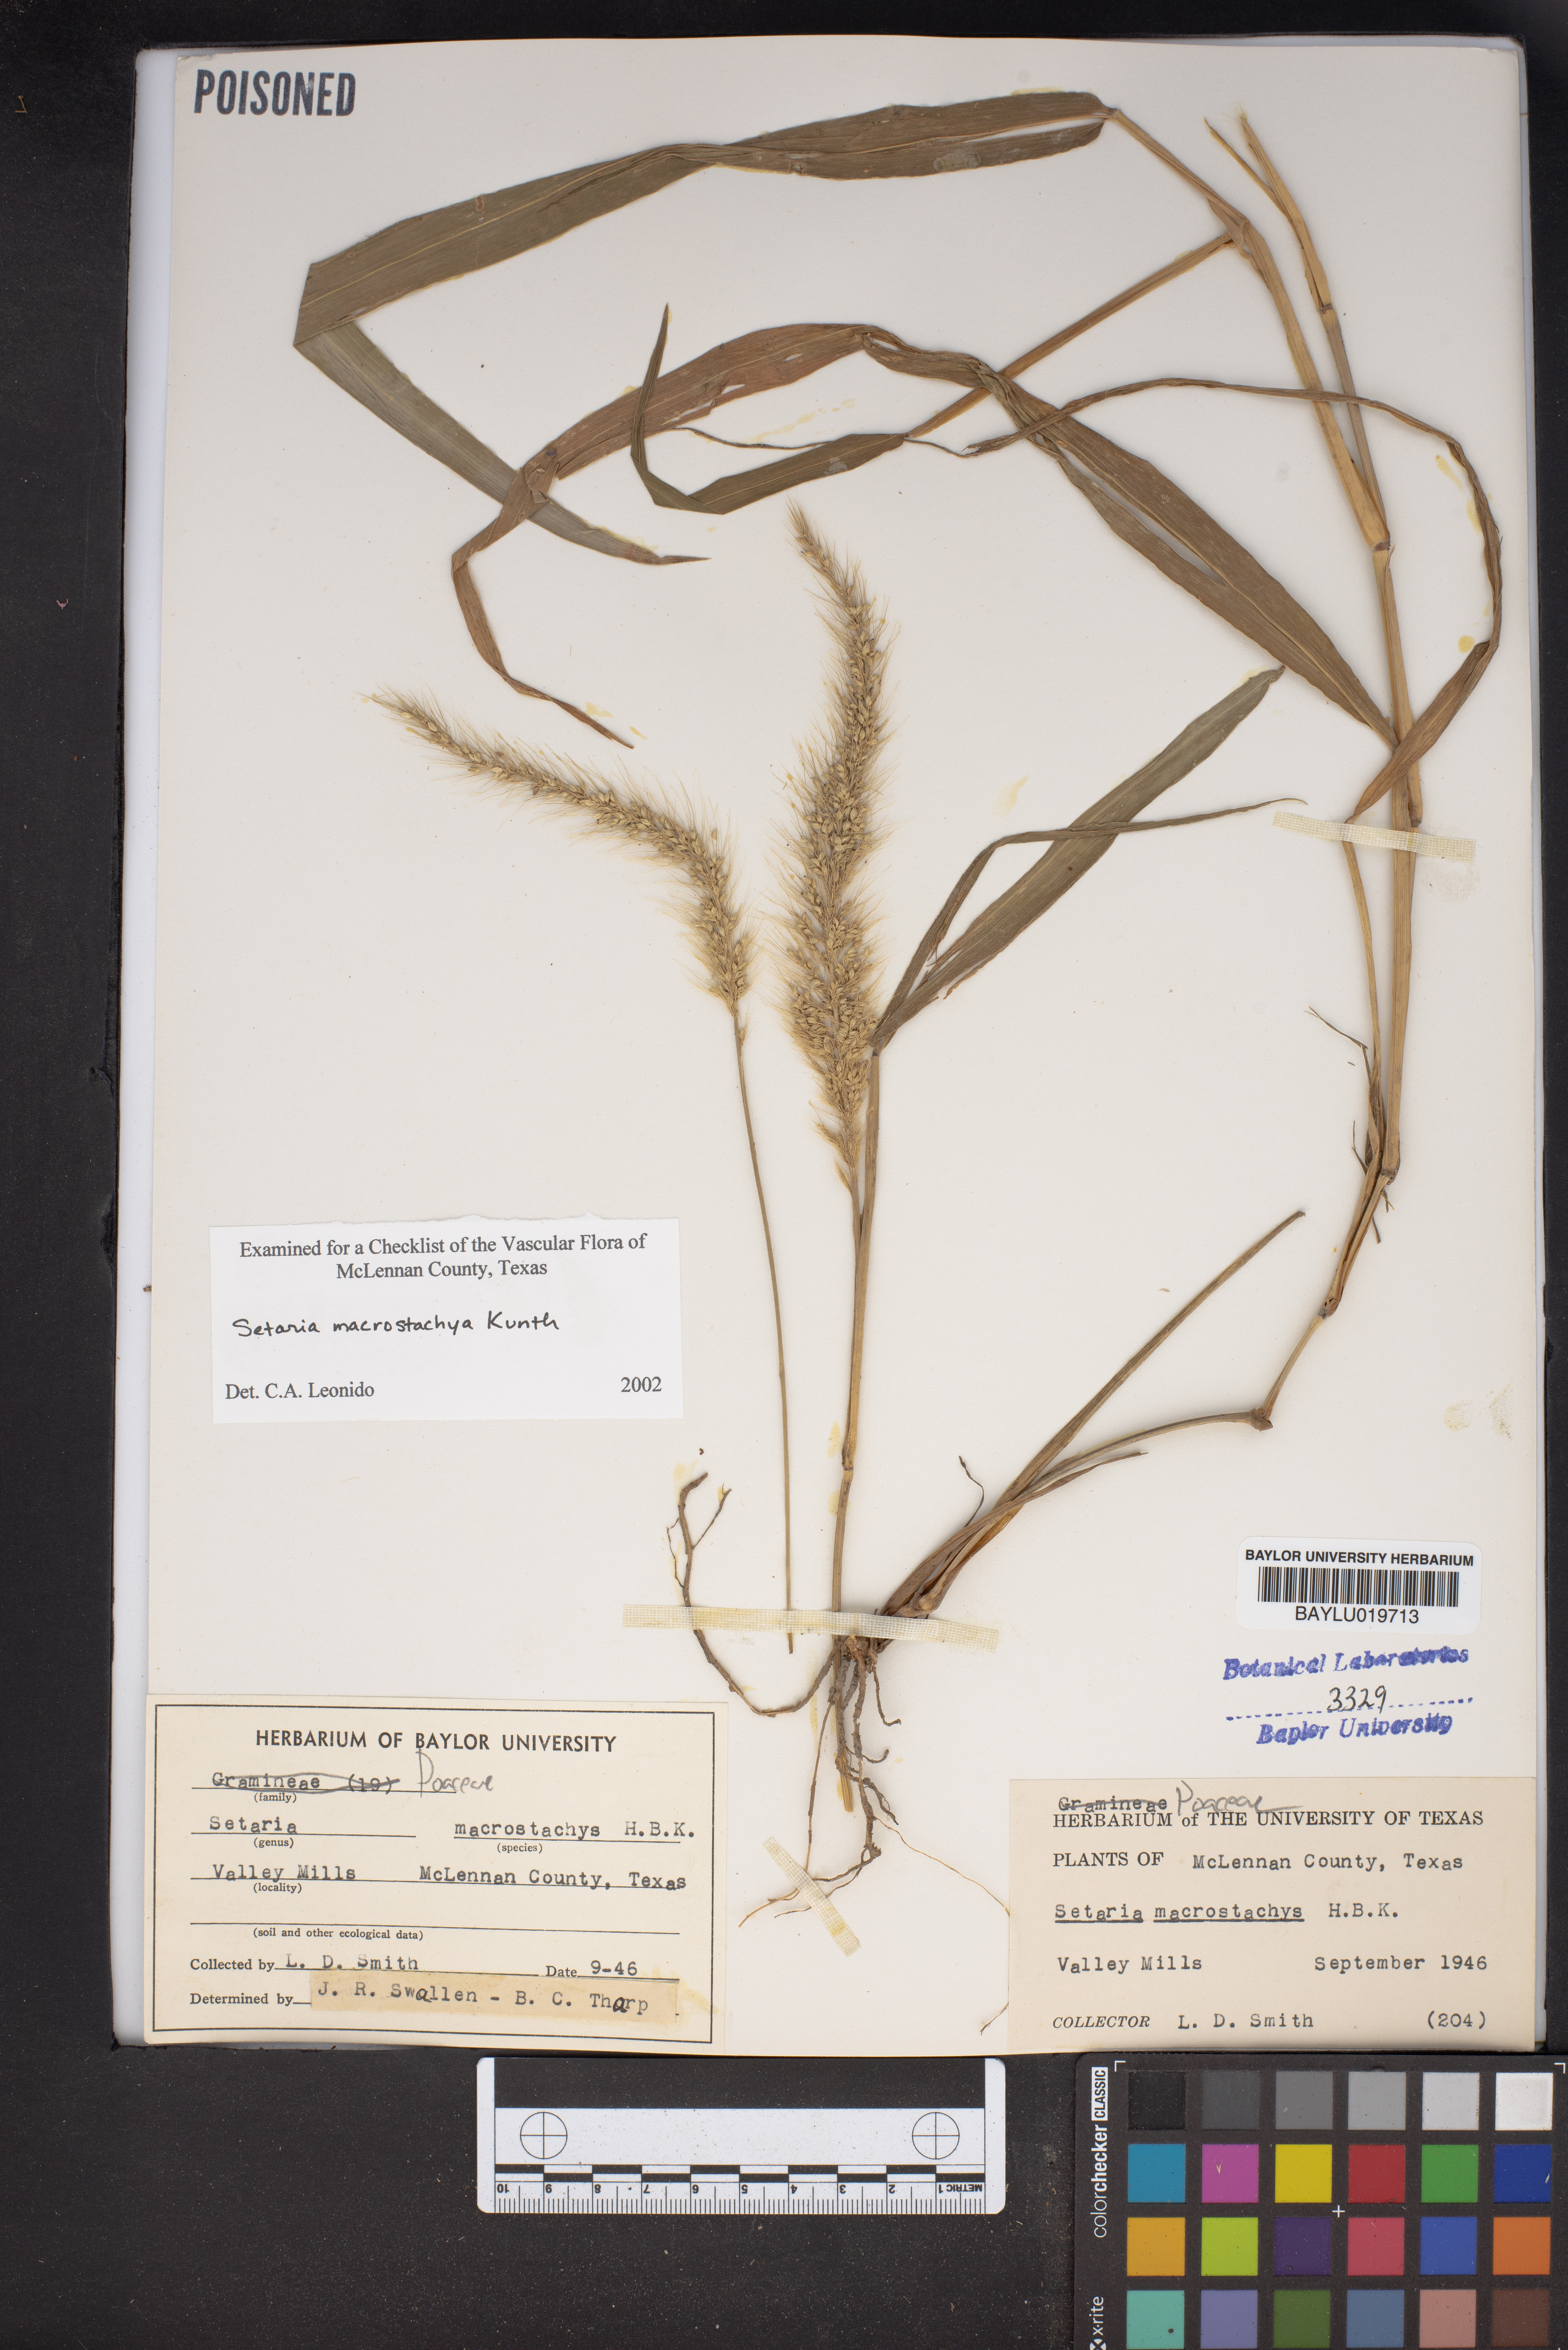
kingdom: Plantae
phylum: Tracheophyta
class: Liliopsida
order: Poales
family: Poaceae
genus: Setaria
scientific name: Setaria macrostachya
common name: Plains bristle grass
